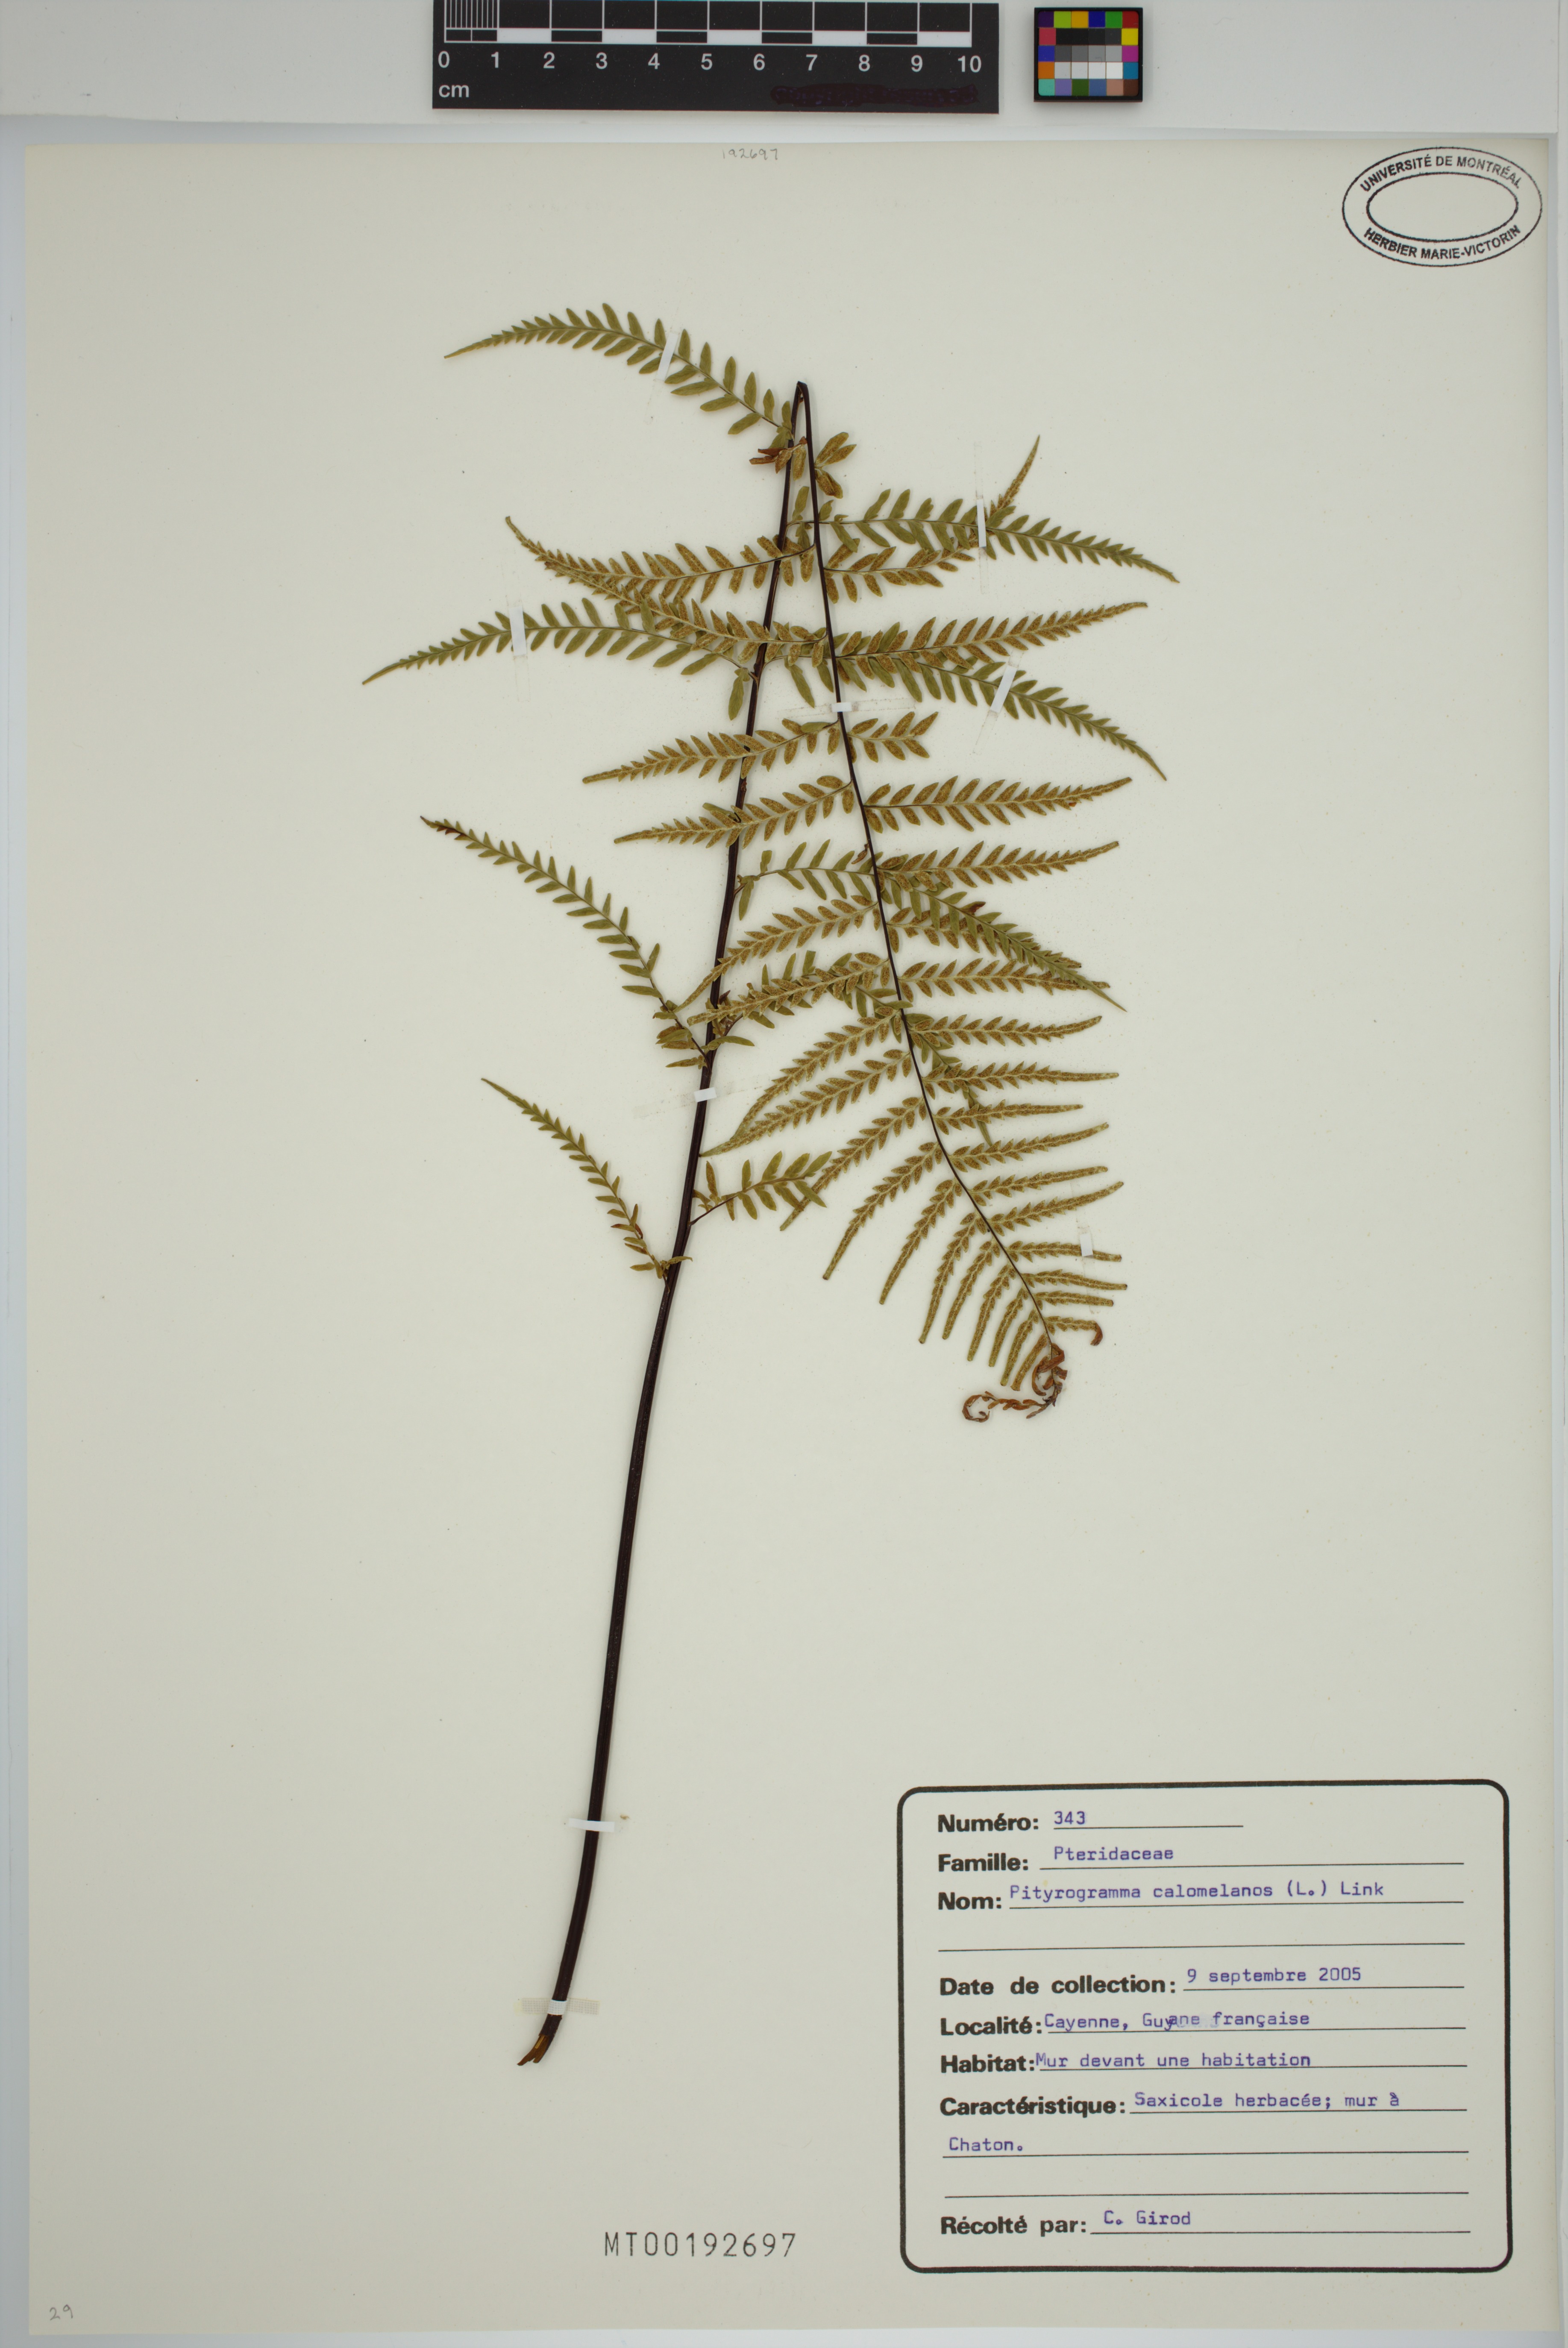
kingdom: Plantae
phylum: Tracheophyta
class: Polypodiopsida
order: Polypodiales
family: Pteridaceae
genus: Pityrogramma
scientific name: Pityrogramma calomelanos
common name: Dixie silverback fern
